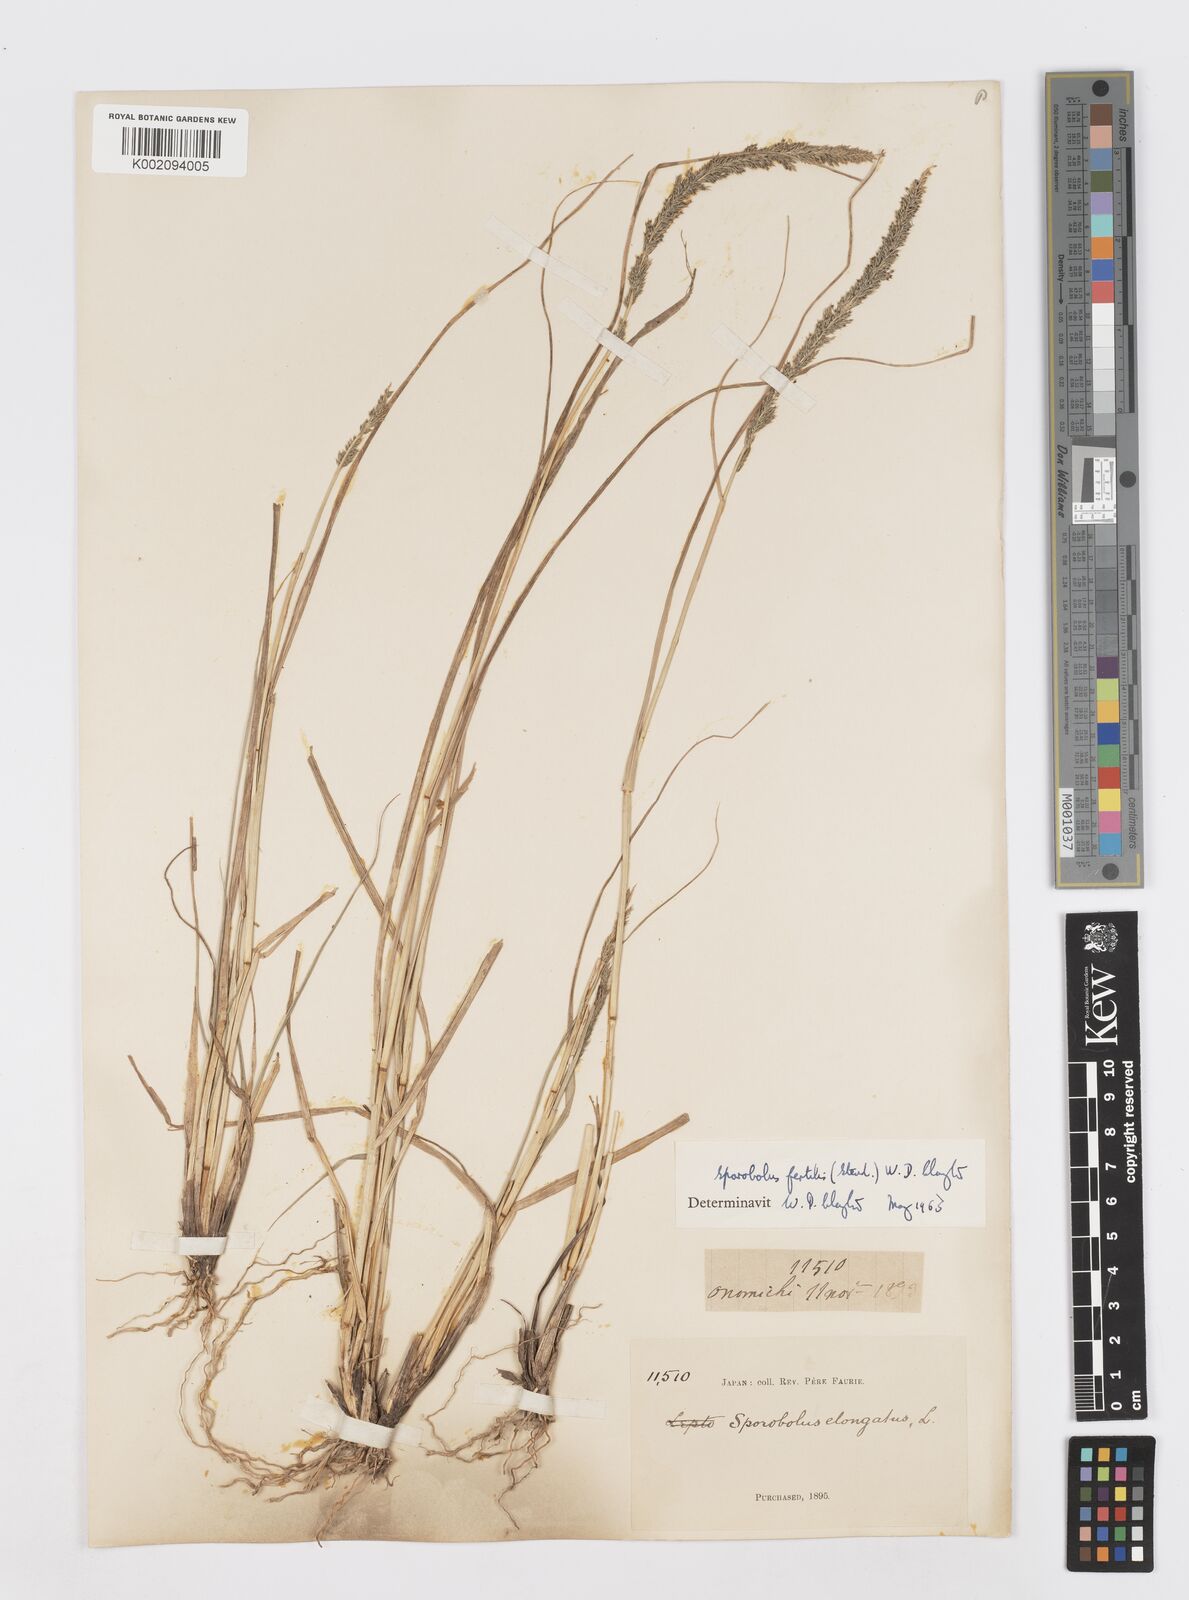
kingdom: Plantae
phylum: Tracheophyta
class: Liliopsida
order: Poales
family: Poaceae
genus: Sporobolus
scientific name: Sporobolus fertilis
